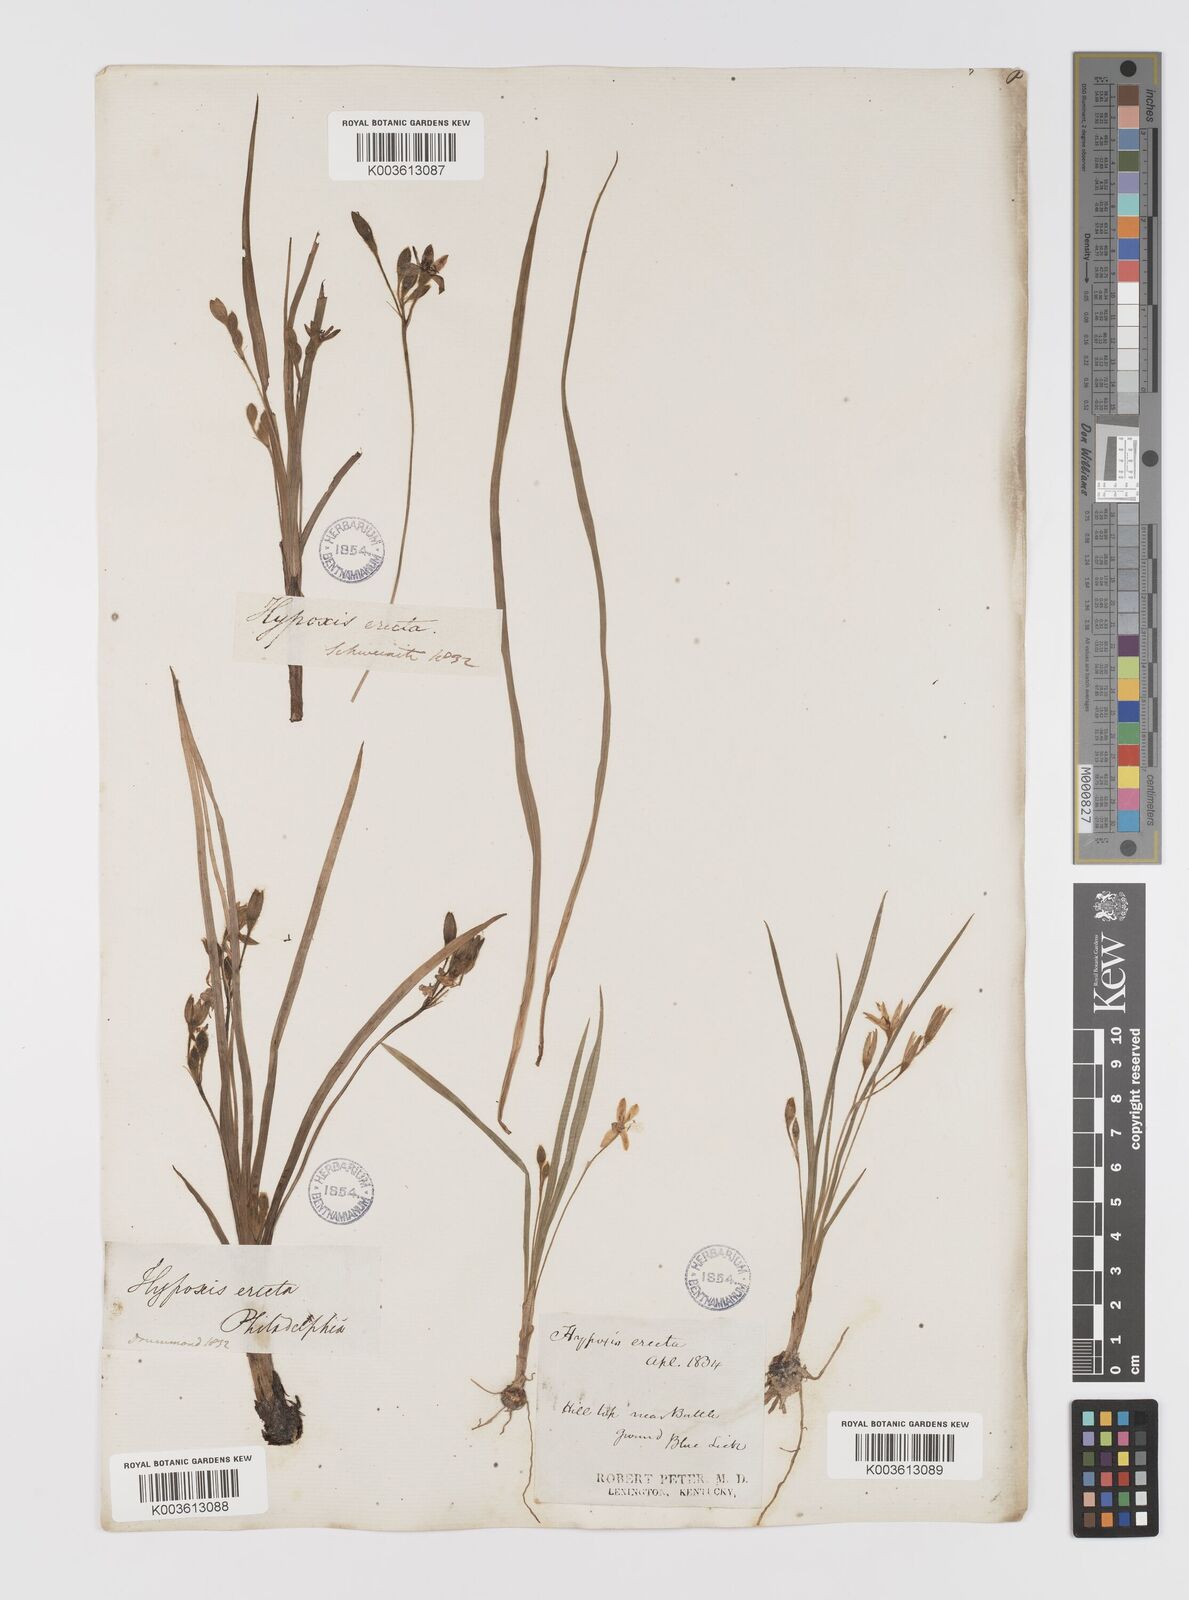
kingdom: Plantae
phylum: Tracheophyta
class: Liliopsida
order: Asparagales
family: Hypoxidaceae
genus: Hypoxis
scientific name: Hypoxis hirsuta
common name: Common goldstar
